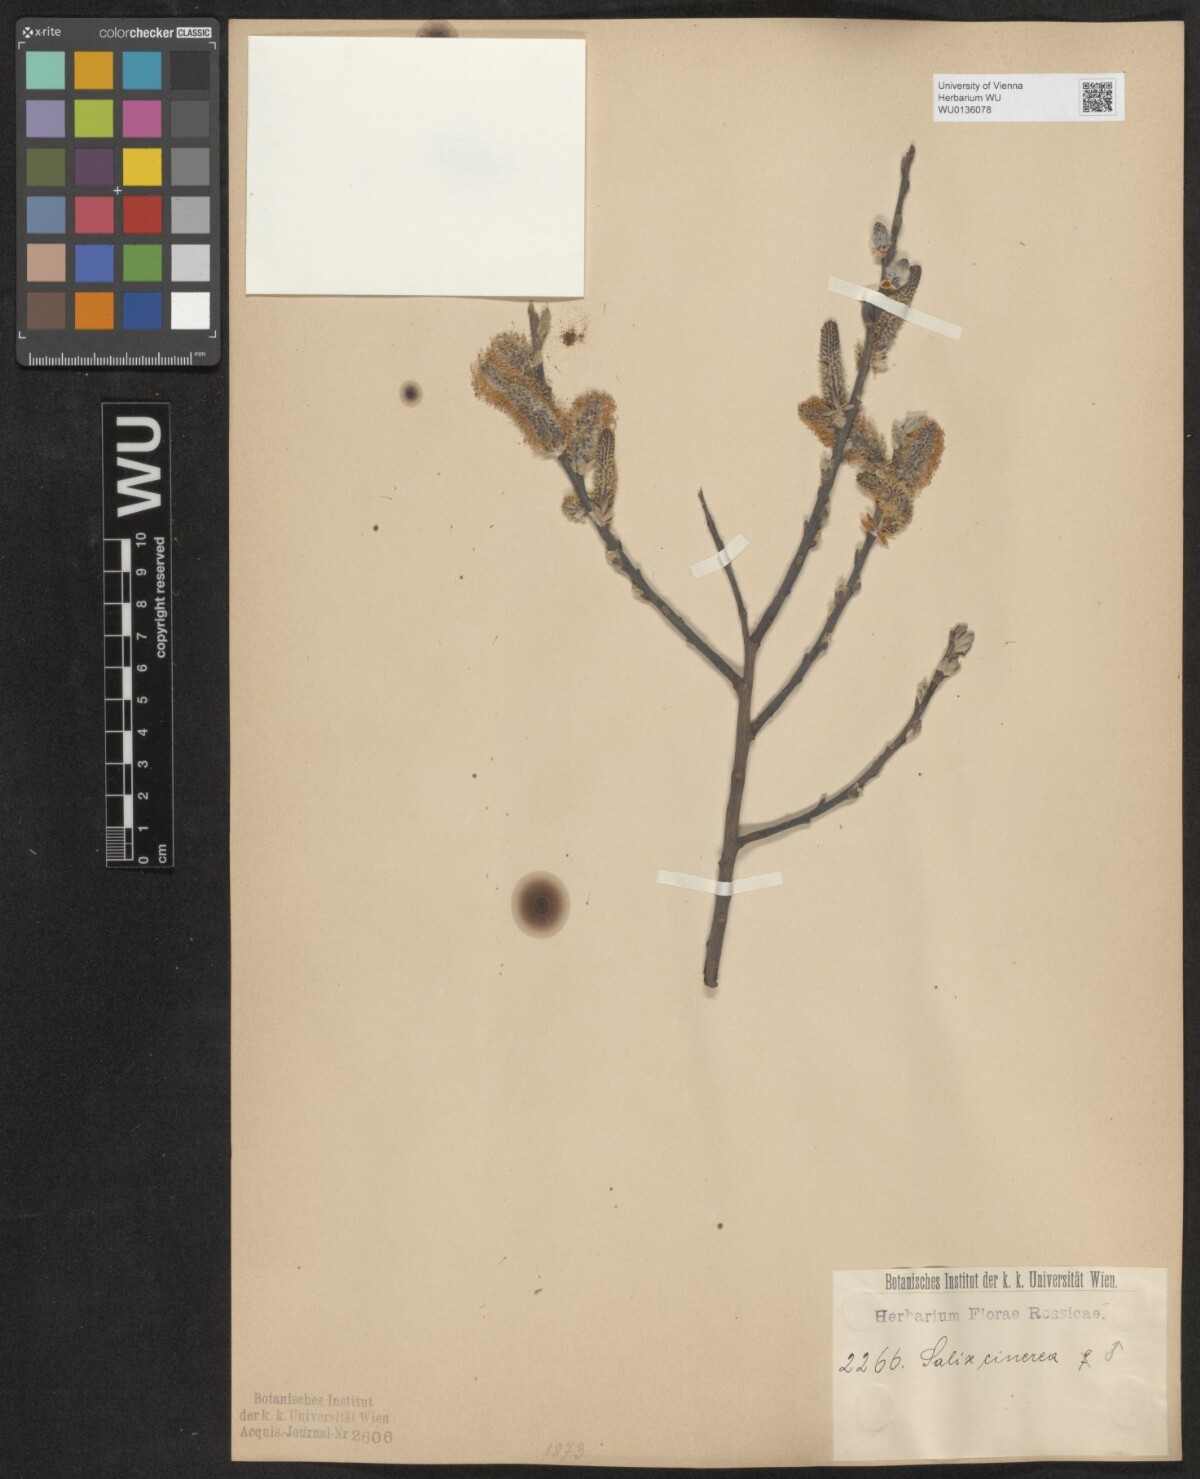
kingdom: Plantae
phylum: Tracheophyta
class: Magnoliopsida
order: Malpighiales
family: Salicaceae
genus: Salix
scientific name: Salix cinerea
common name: Common sallow
